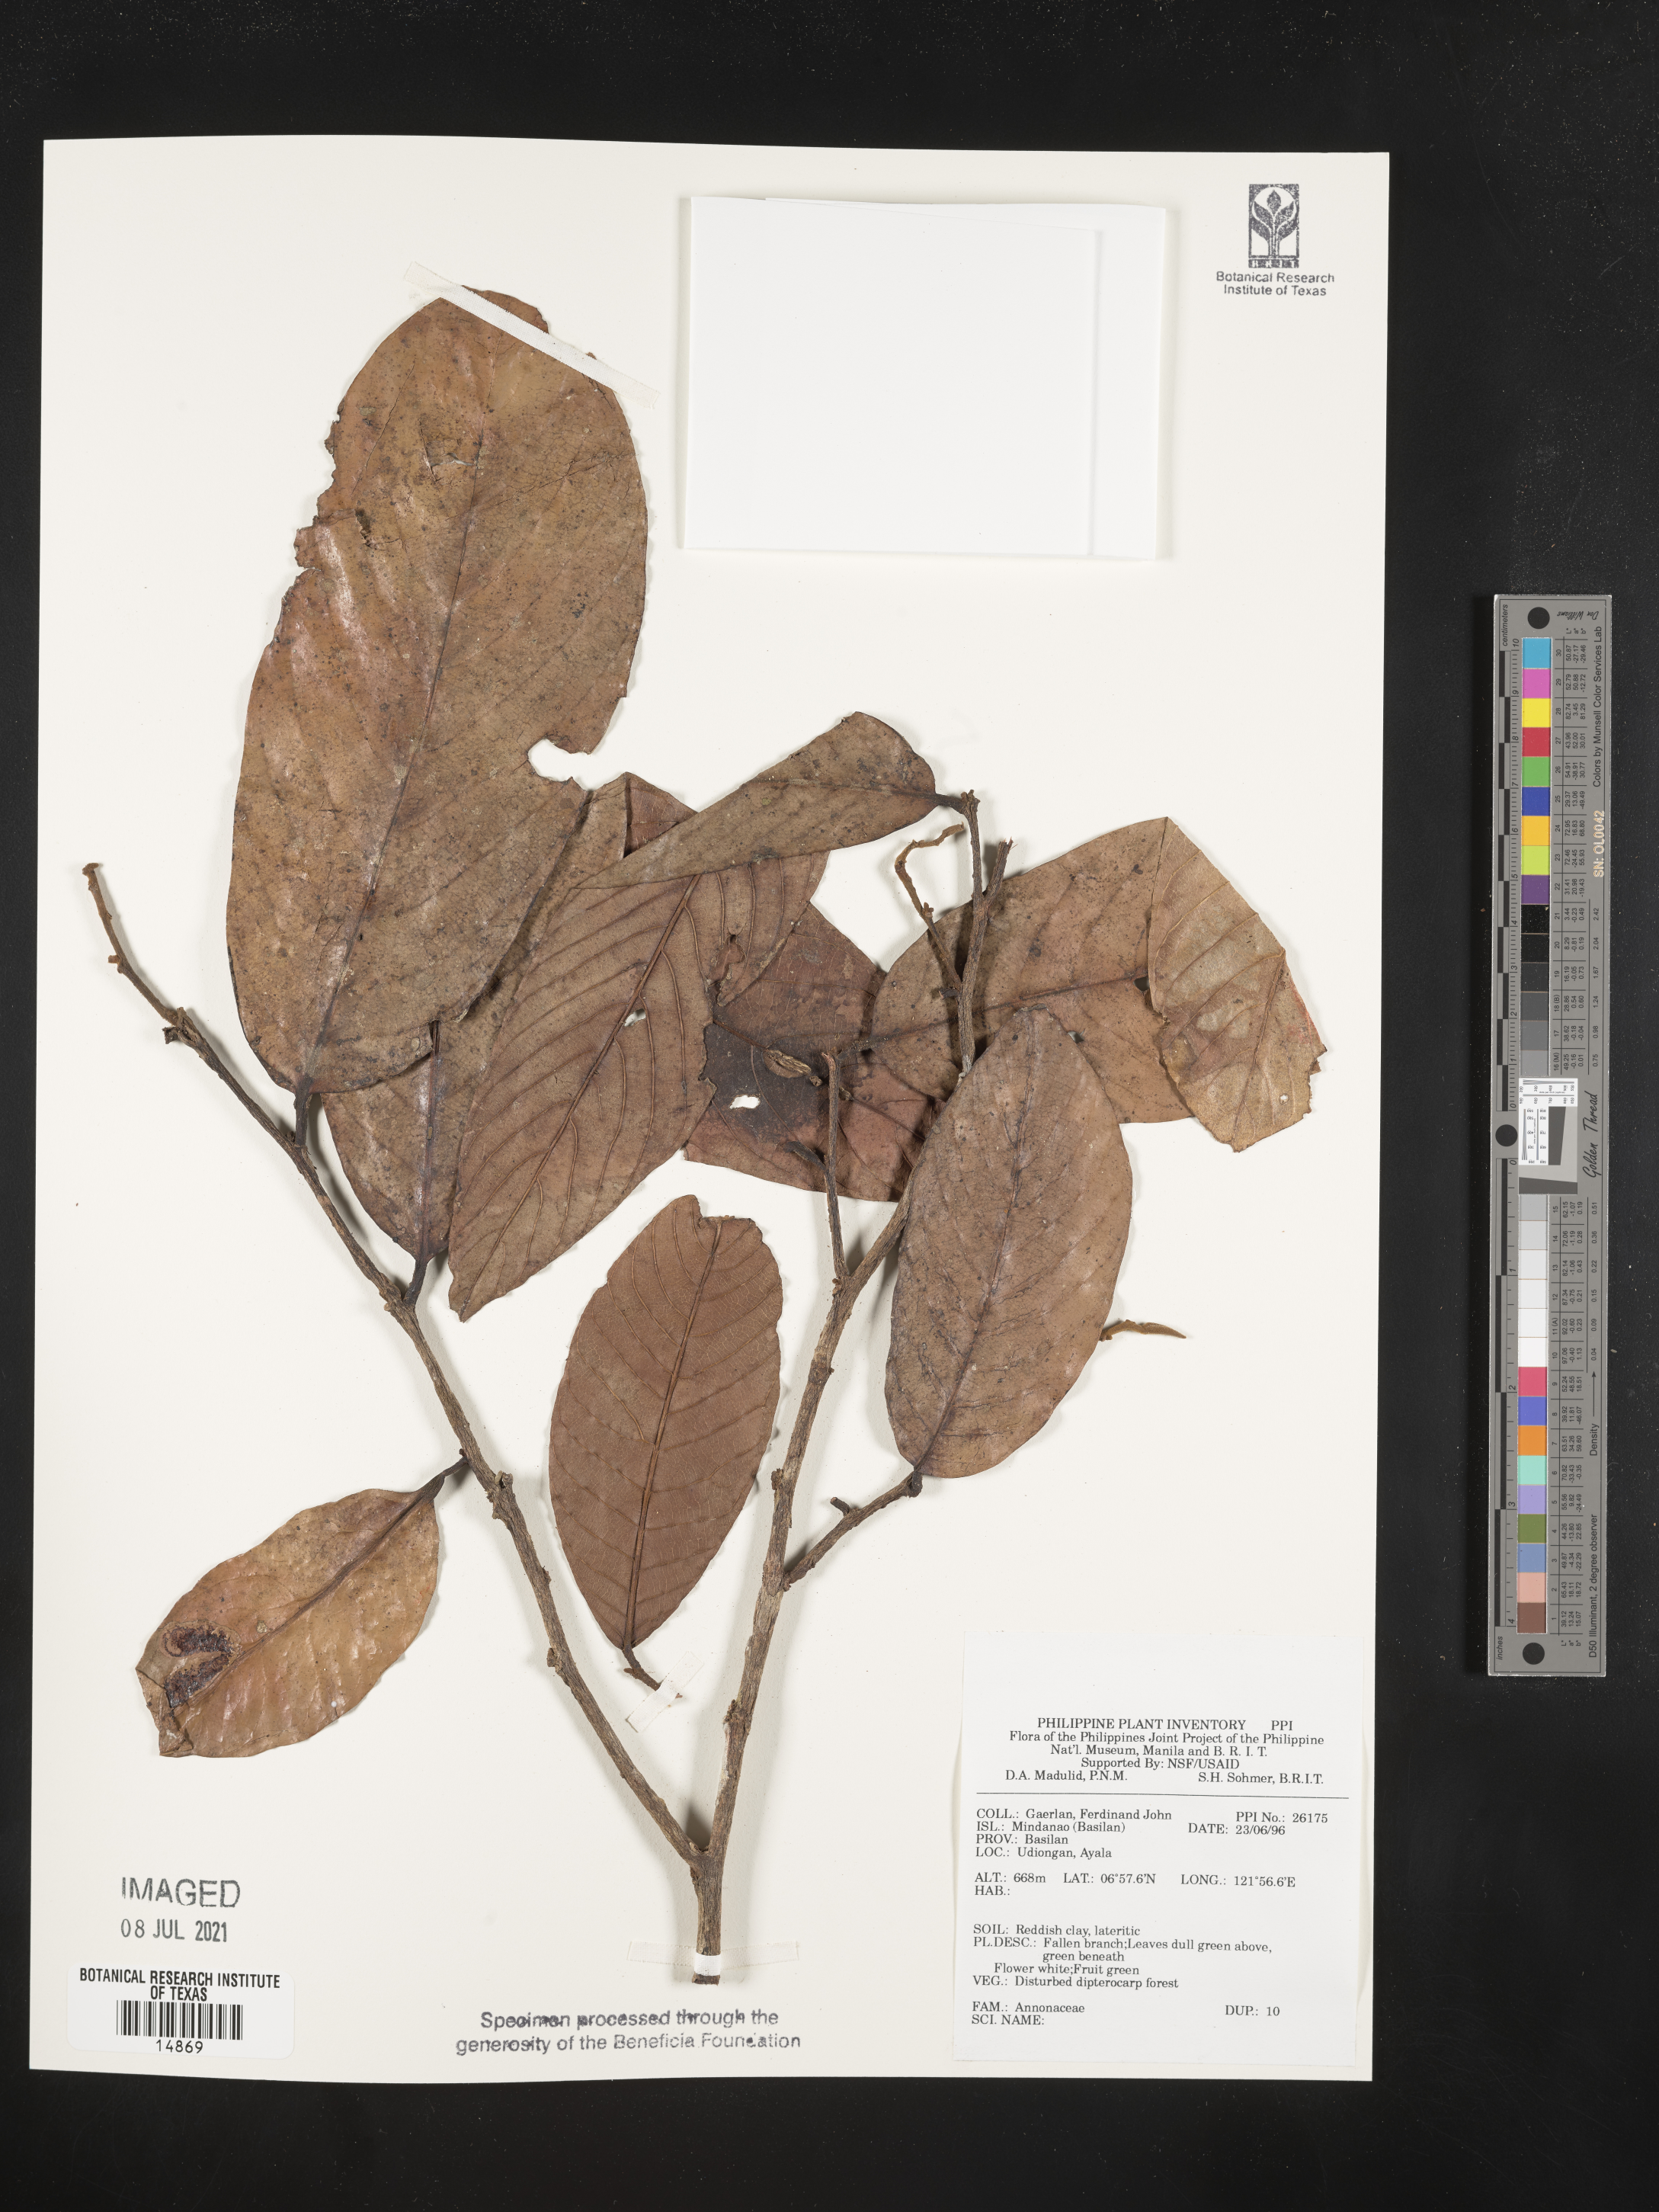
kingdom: Plantae
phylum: Tracheophyta
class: Magnoliopsida
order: Magnoliales
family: Annonaceae
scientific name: Annonaceae
